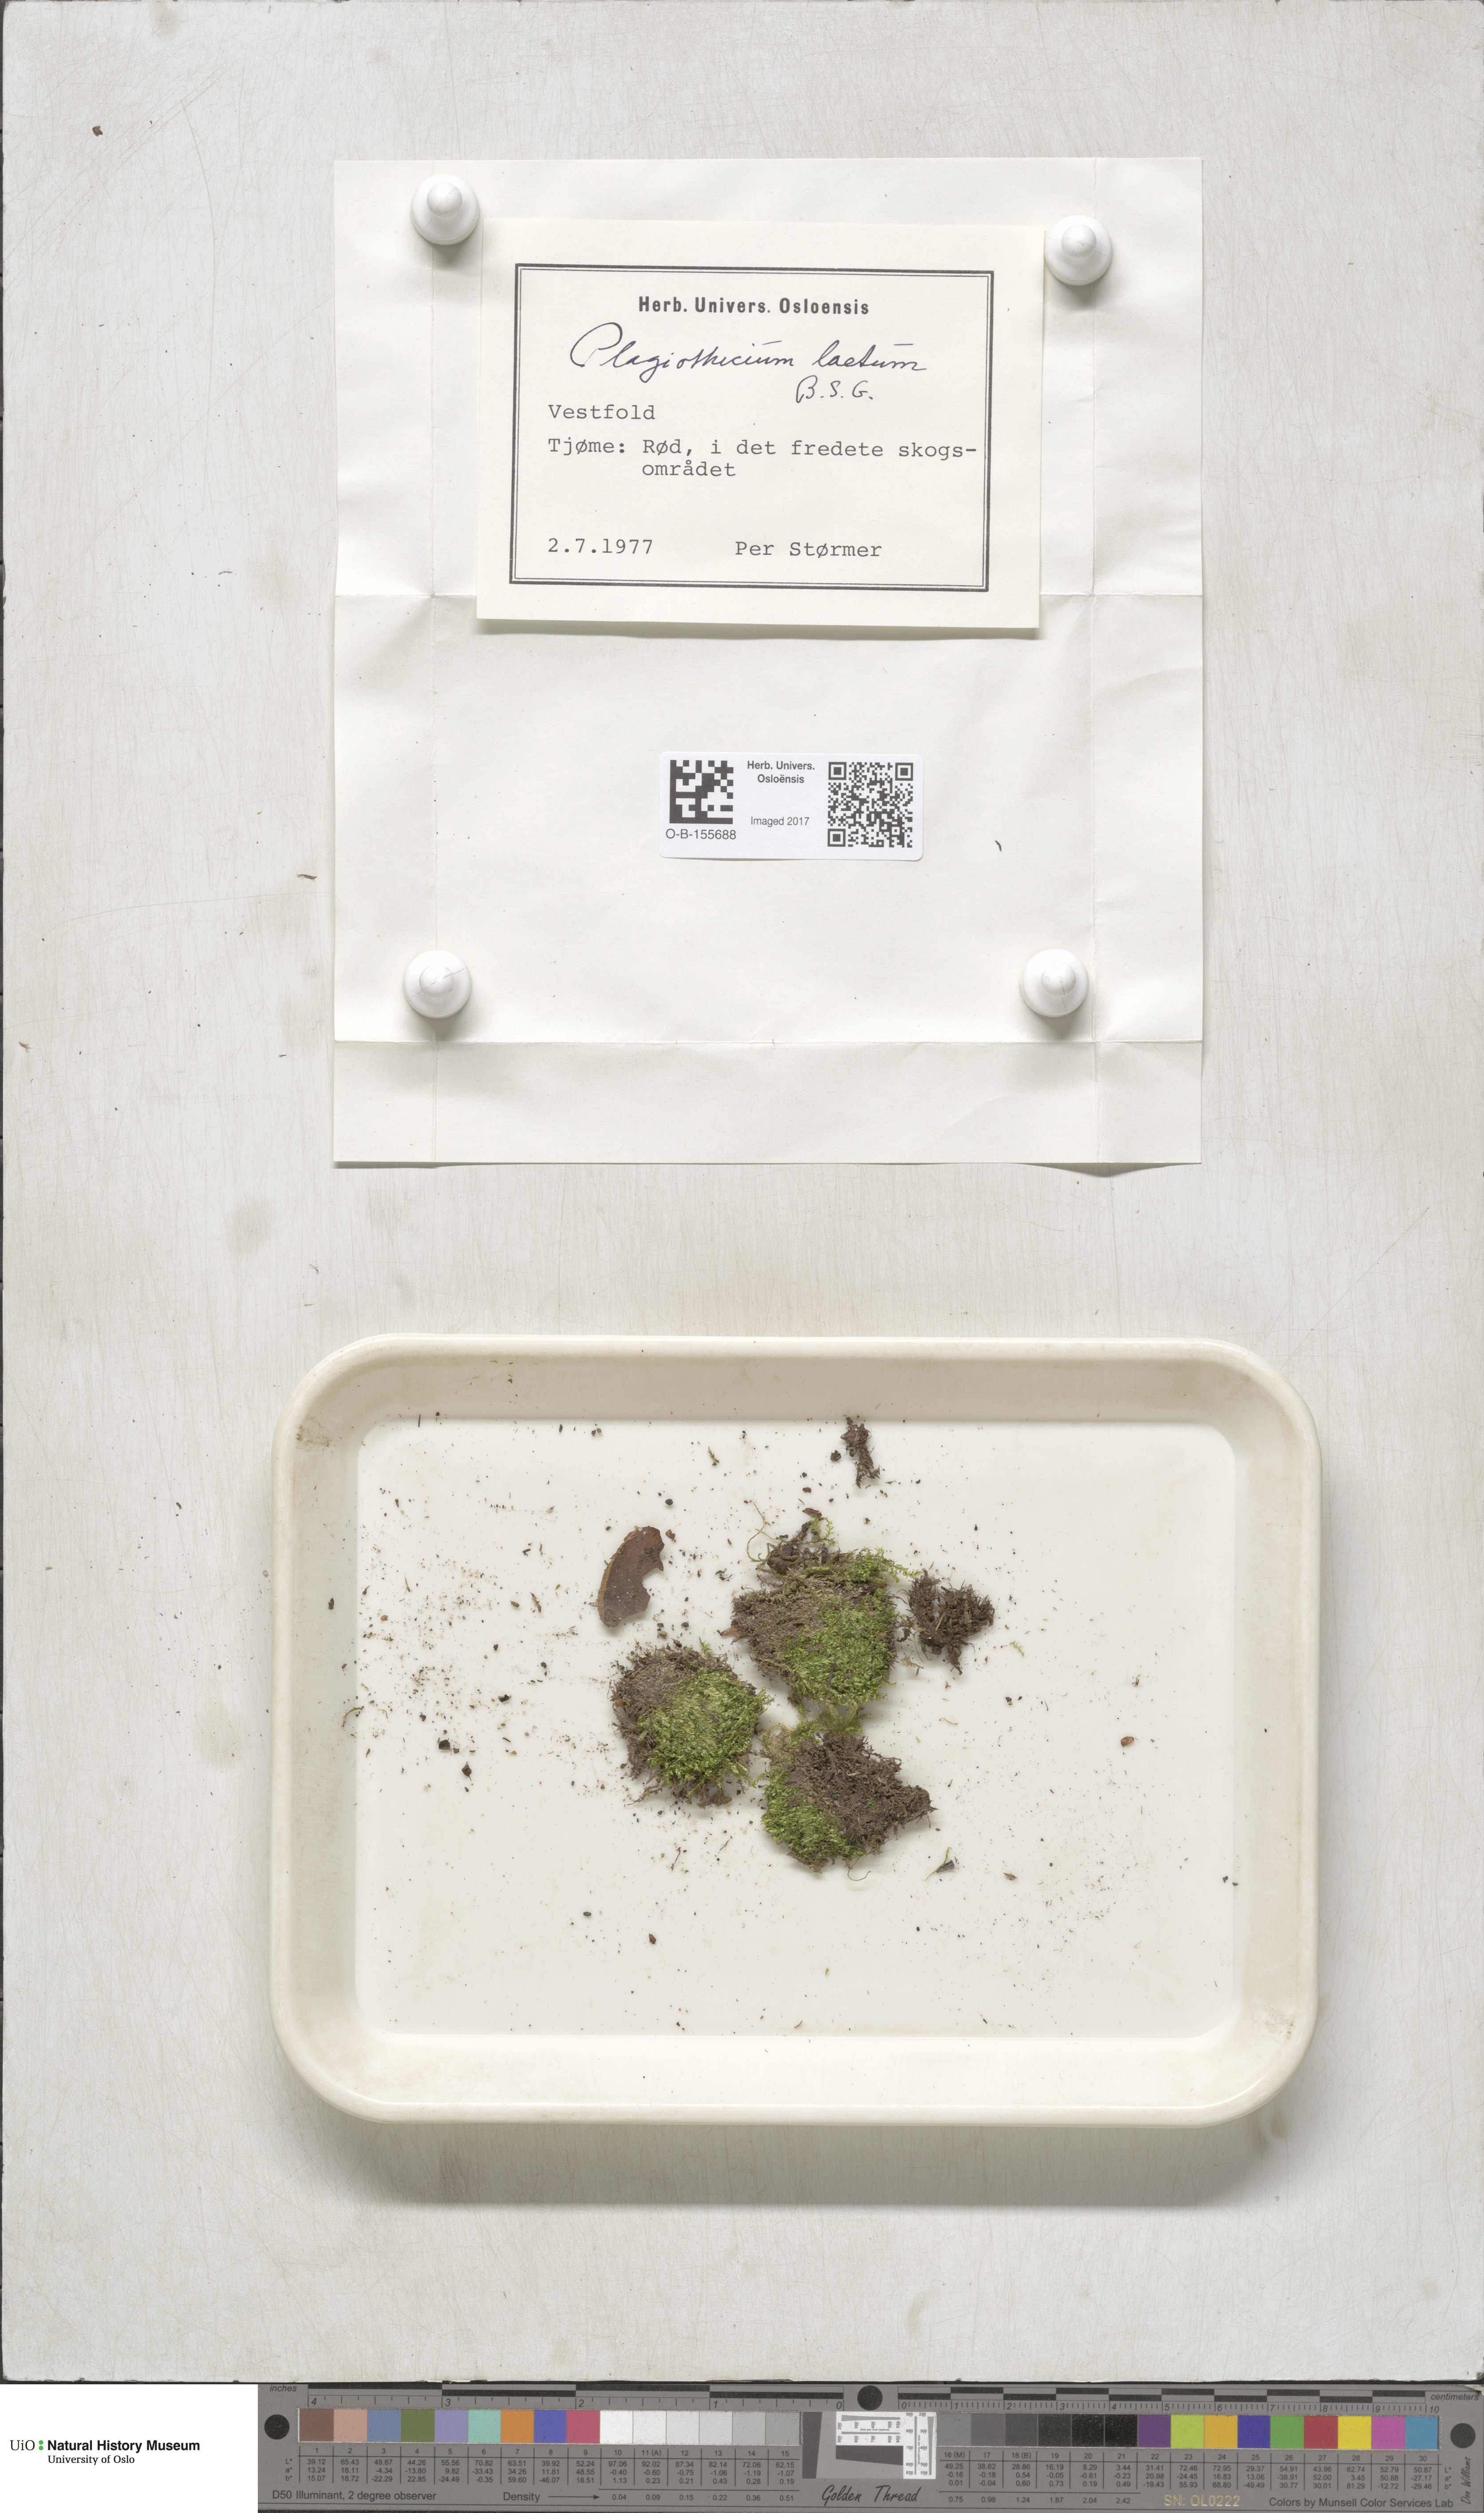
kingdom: Plantae
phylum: Bryophyta
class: Bryopsida
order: Hypnales
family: Plagiotheciaceae
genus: Plagiothecium
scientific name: Plagiothecium laetum
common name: Bright silk moss
